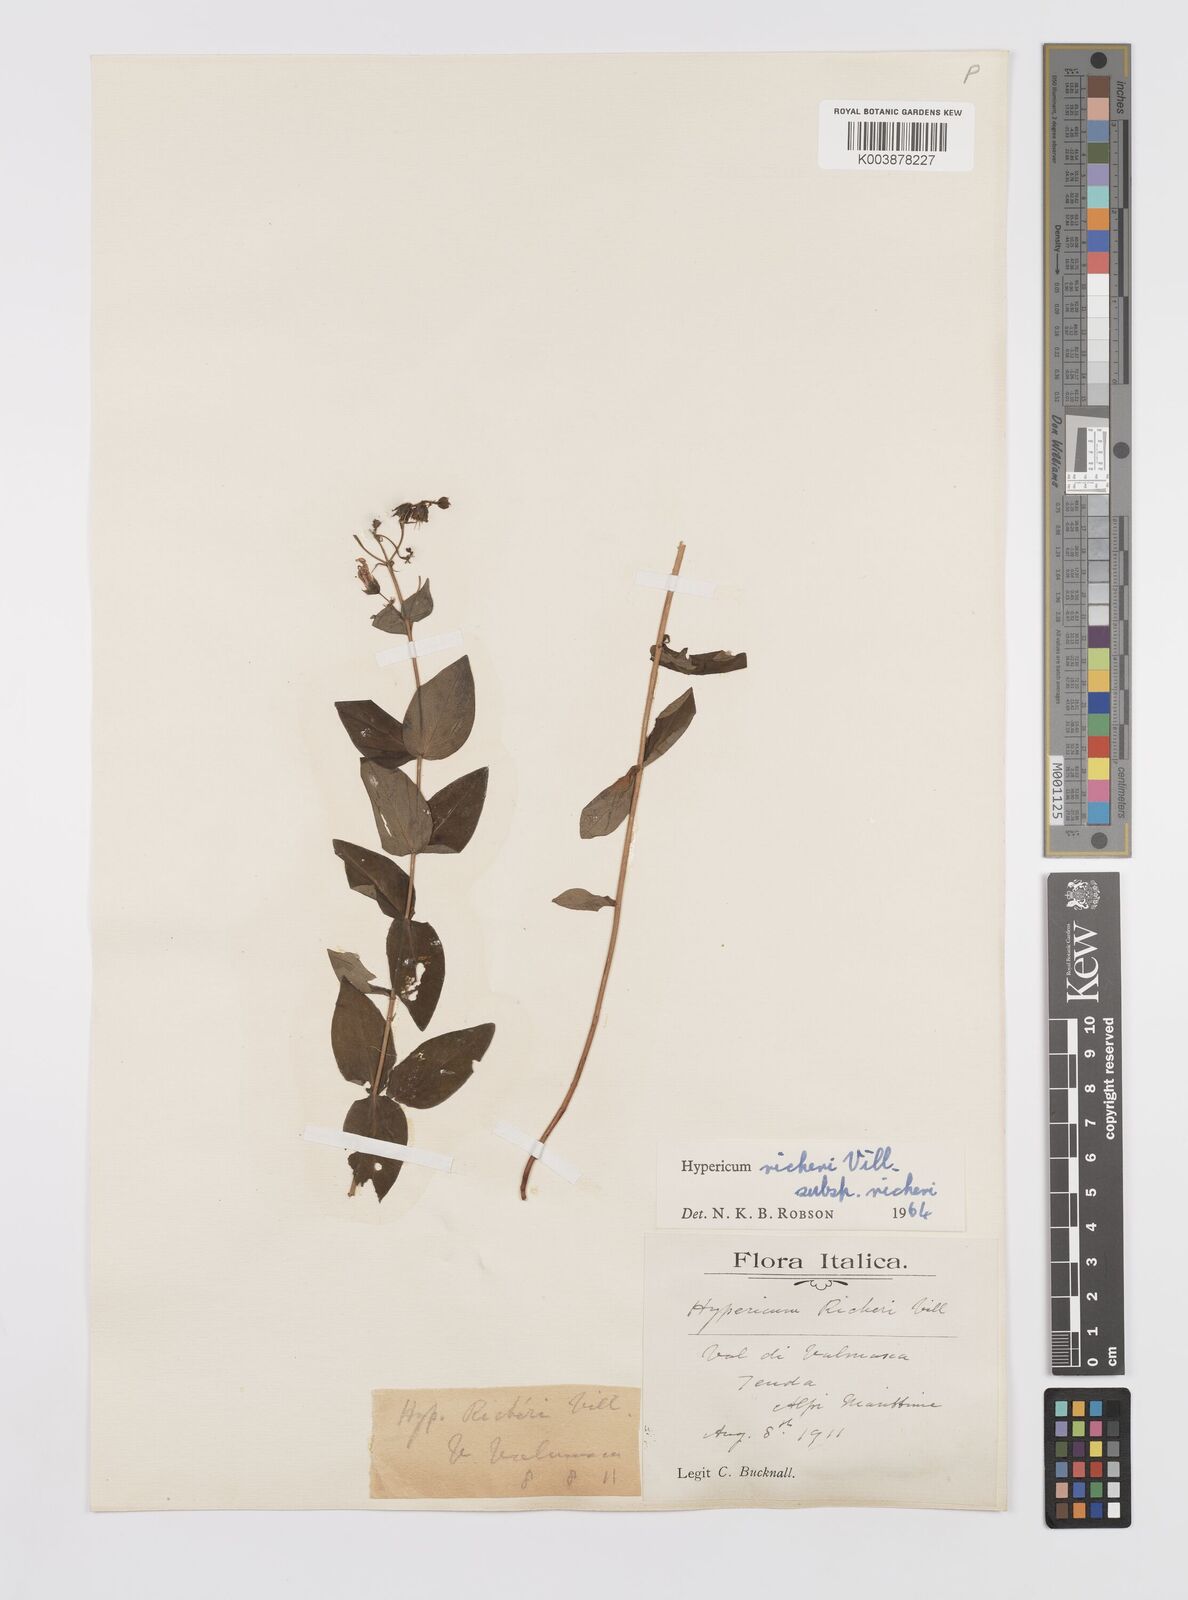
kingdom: Plantae
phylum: Tracheophyta
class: Magnoliopsida
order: Malpighiales
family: Hypericaceae
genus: Hypericum
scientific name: Hypericum richeri
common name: Alpine st john's-wort
